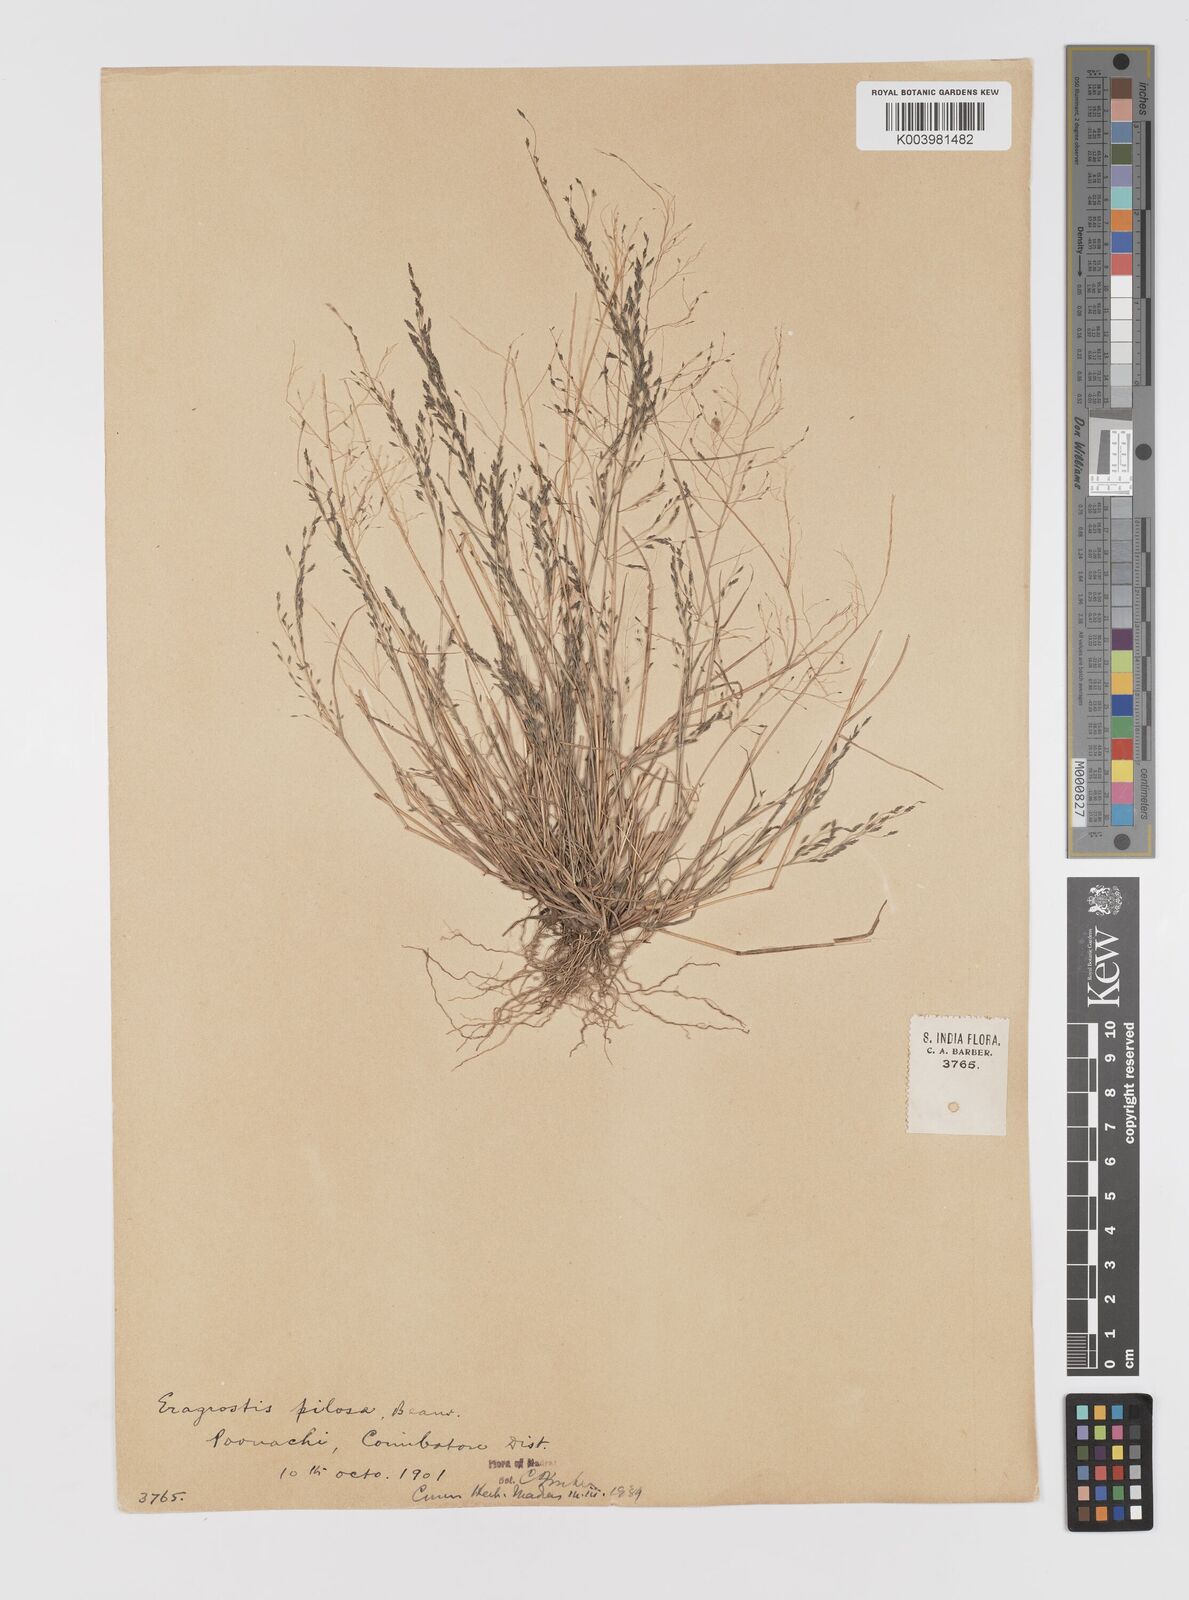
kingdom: Plantae
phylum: Tracheophyta
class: Liliopsida
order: Poales
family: Poaceae
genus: Eragrostis
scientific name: Eragrostis pilosa
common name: Indian lovegrass
